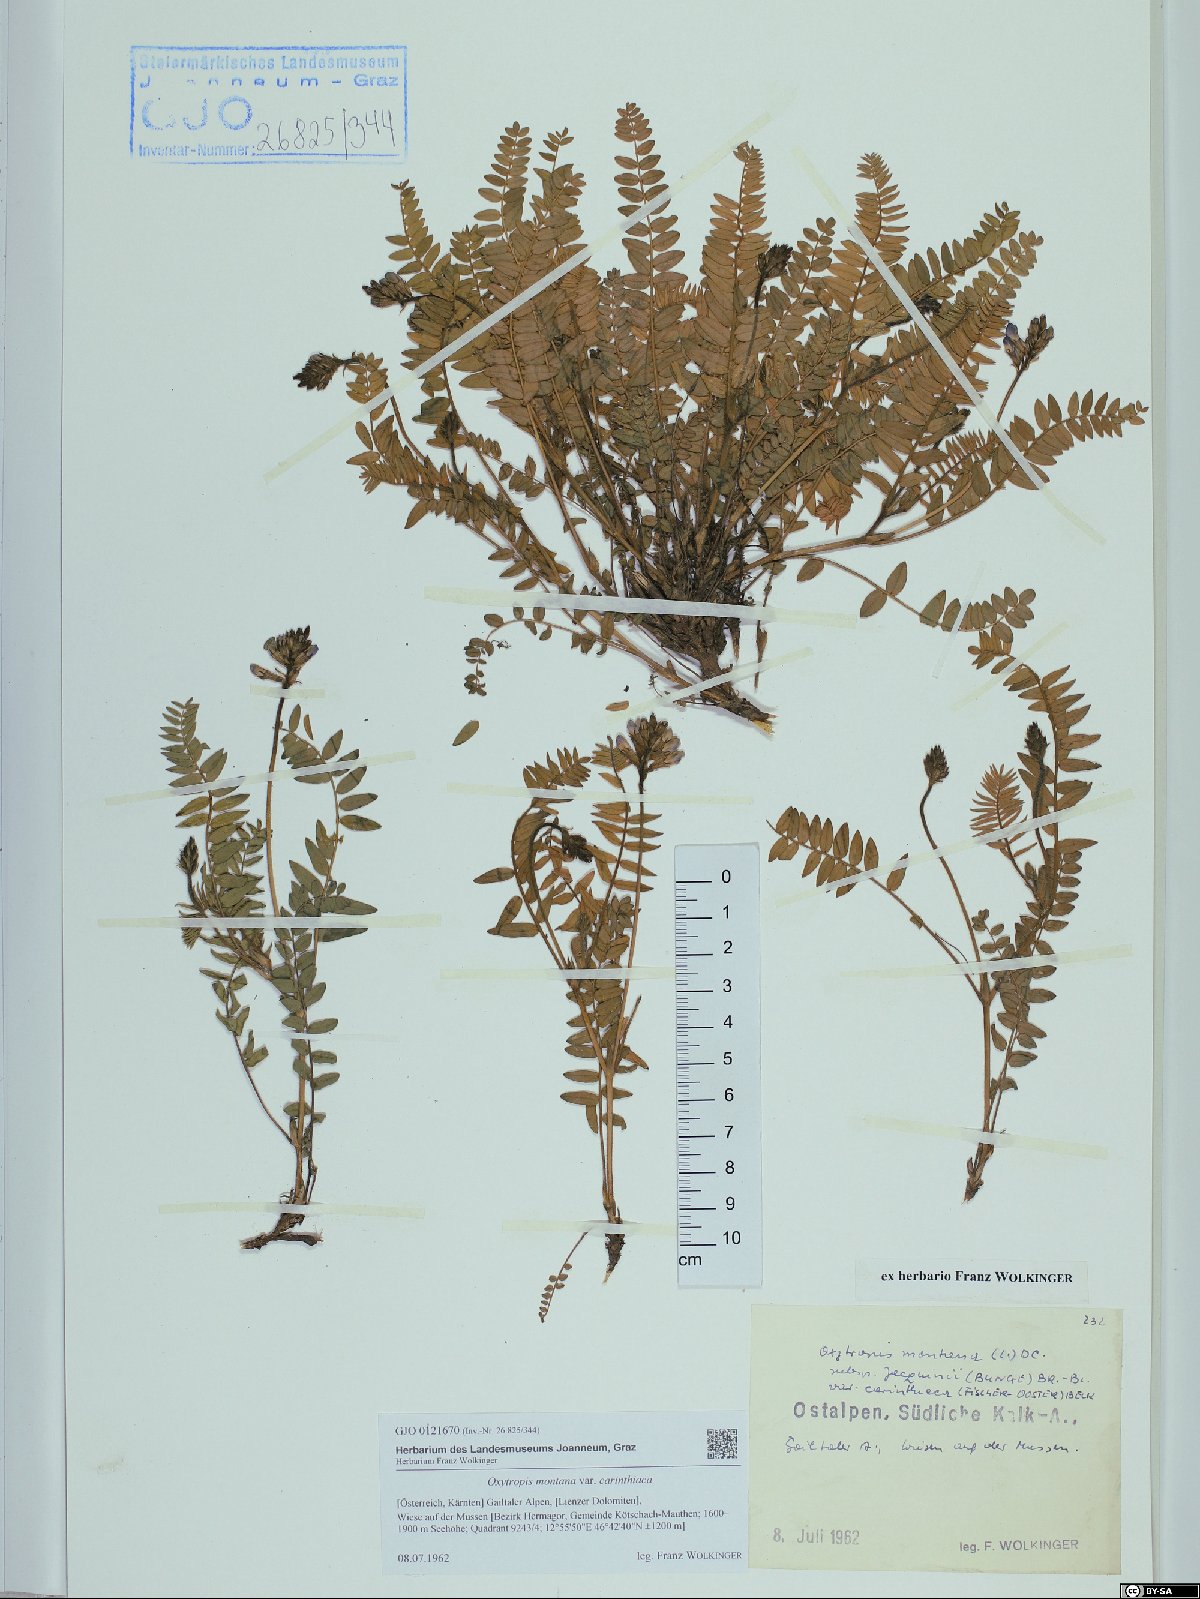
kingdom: Plantae
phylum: Tracheophyta
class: Magnoliopsida
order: Fabales
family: Fabaceae
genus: Oxytropis
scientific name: Oxytropis montana
